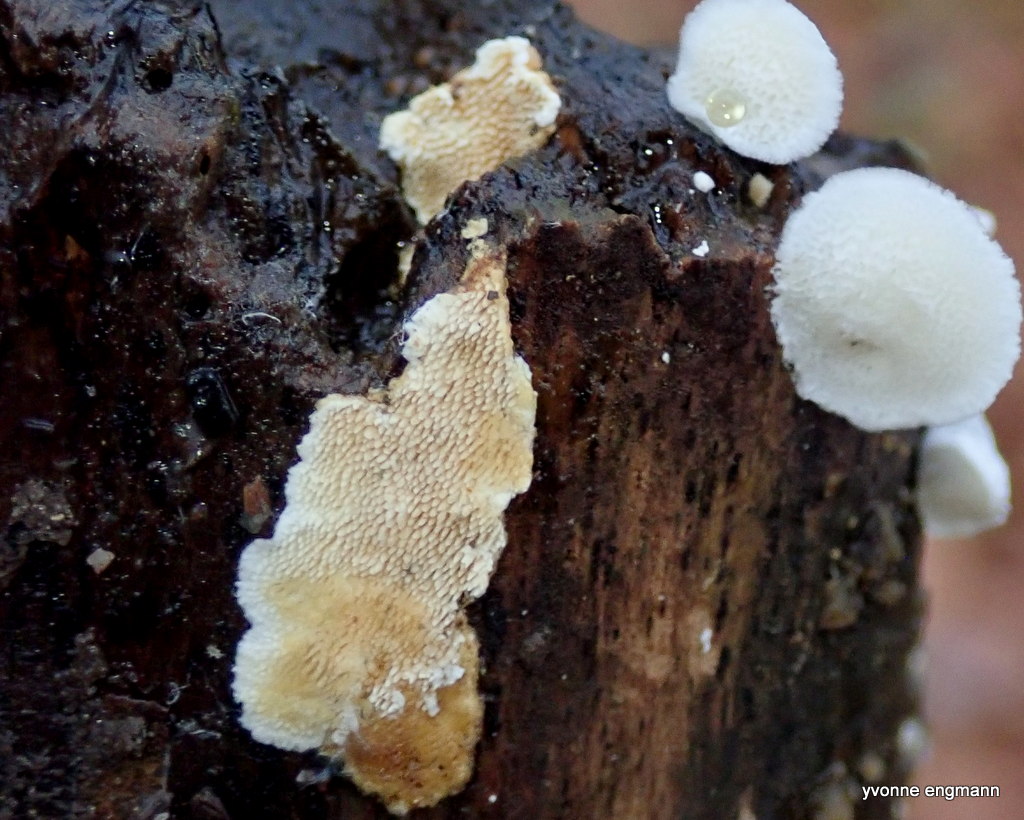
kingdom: Fungi
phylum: Basidiomycota
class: Agaricomycetes
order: Polyporales
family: Steccherinaceae
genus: Steccherinum
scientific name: Steccherinum ochraceum
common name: almindelig skønpig
